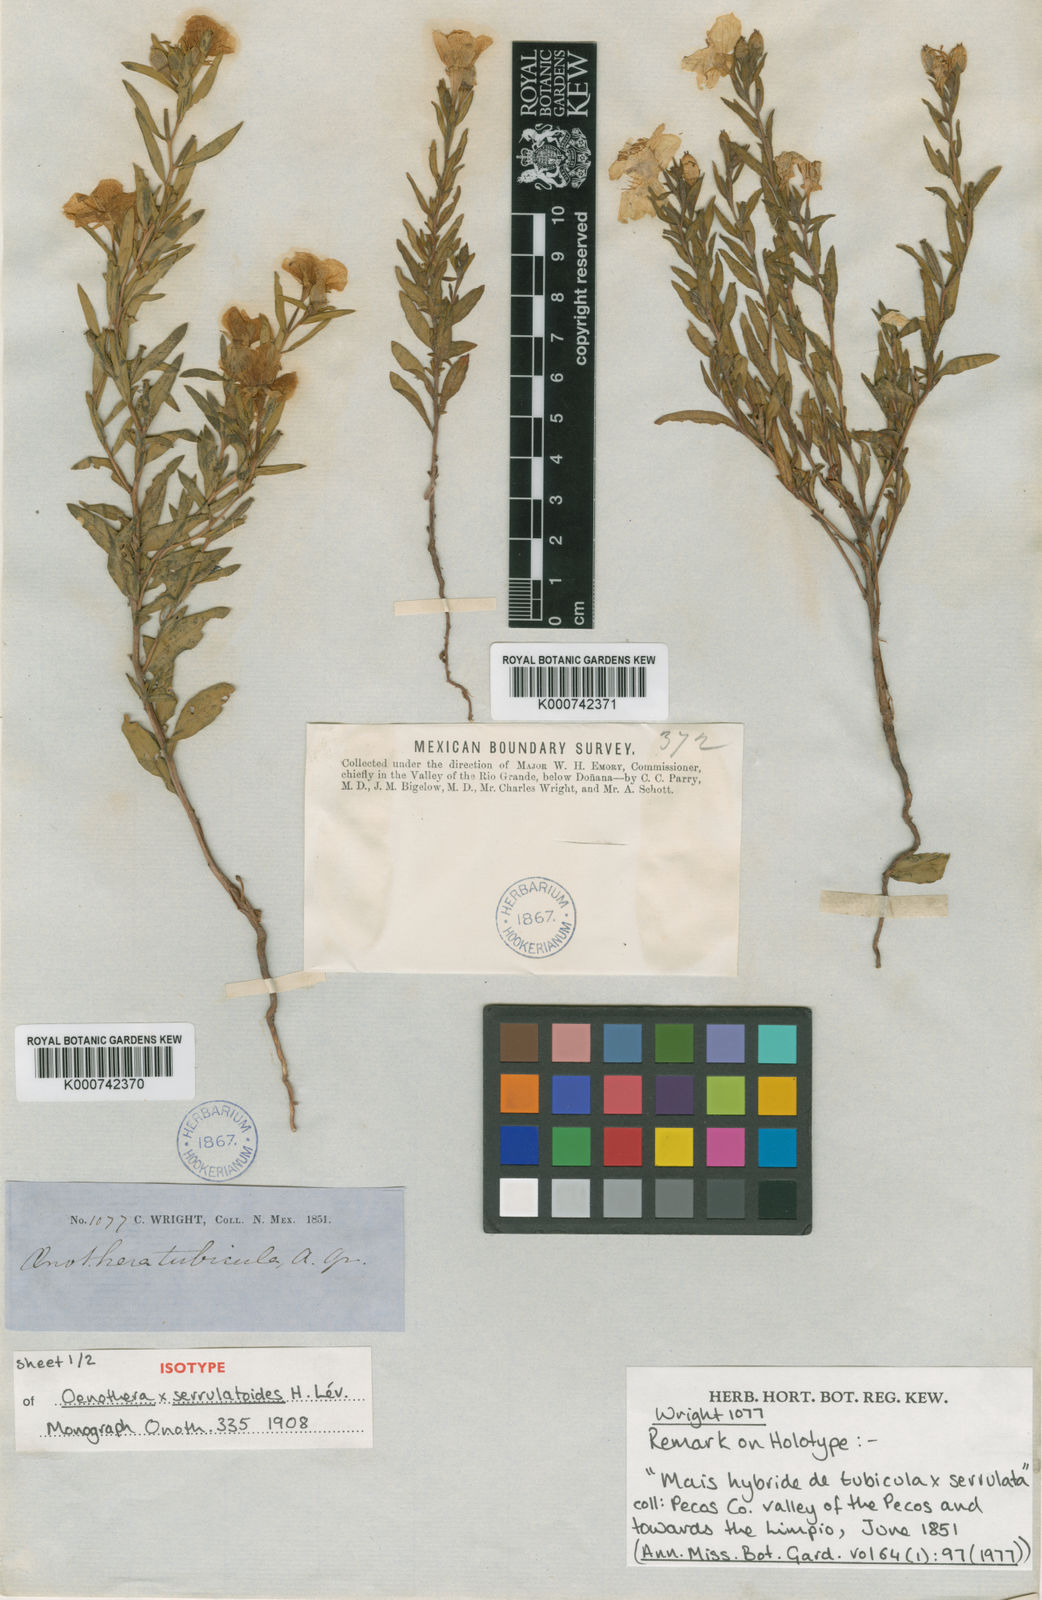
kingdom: Plantae
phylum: Tracheophyta
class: Magnoliopsida
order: Myrtales
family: Onagraceae
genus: Oenothera
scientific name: Oenothera tubicula
